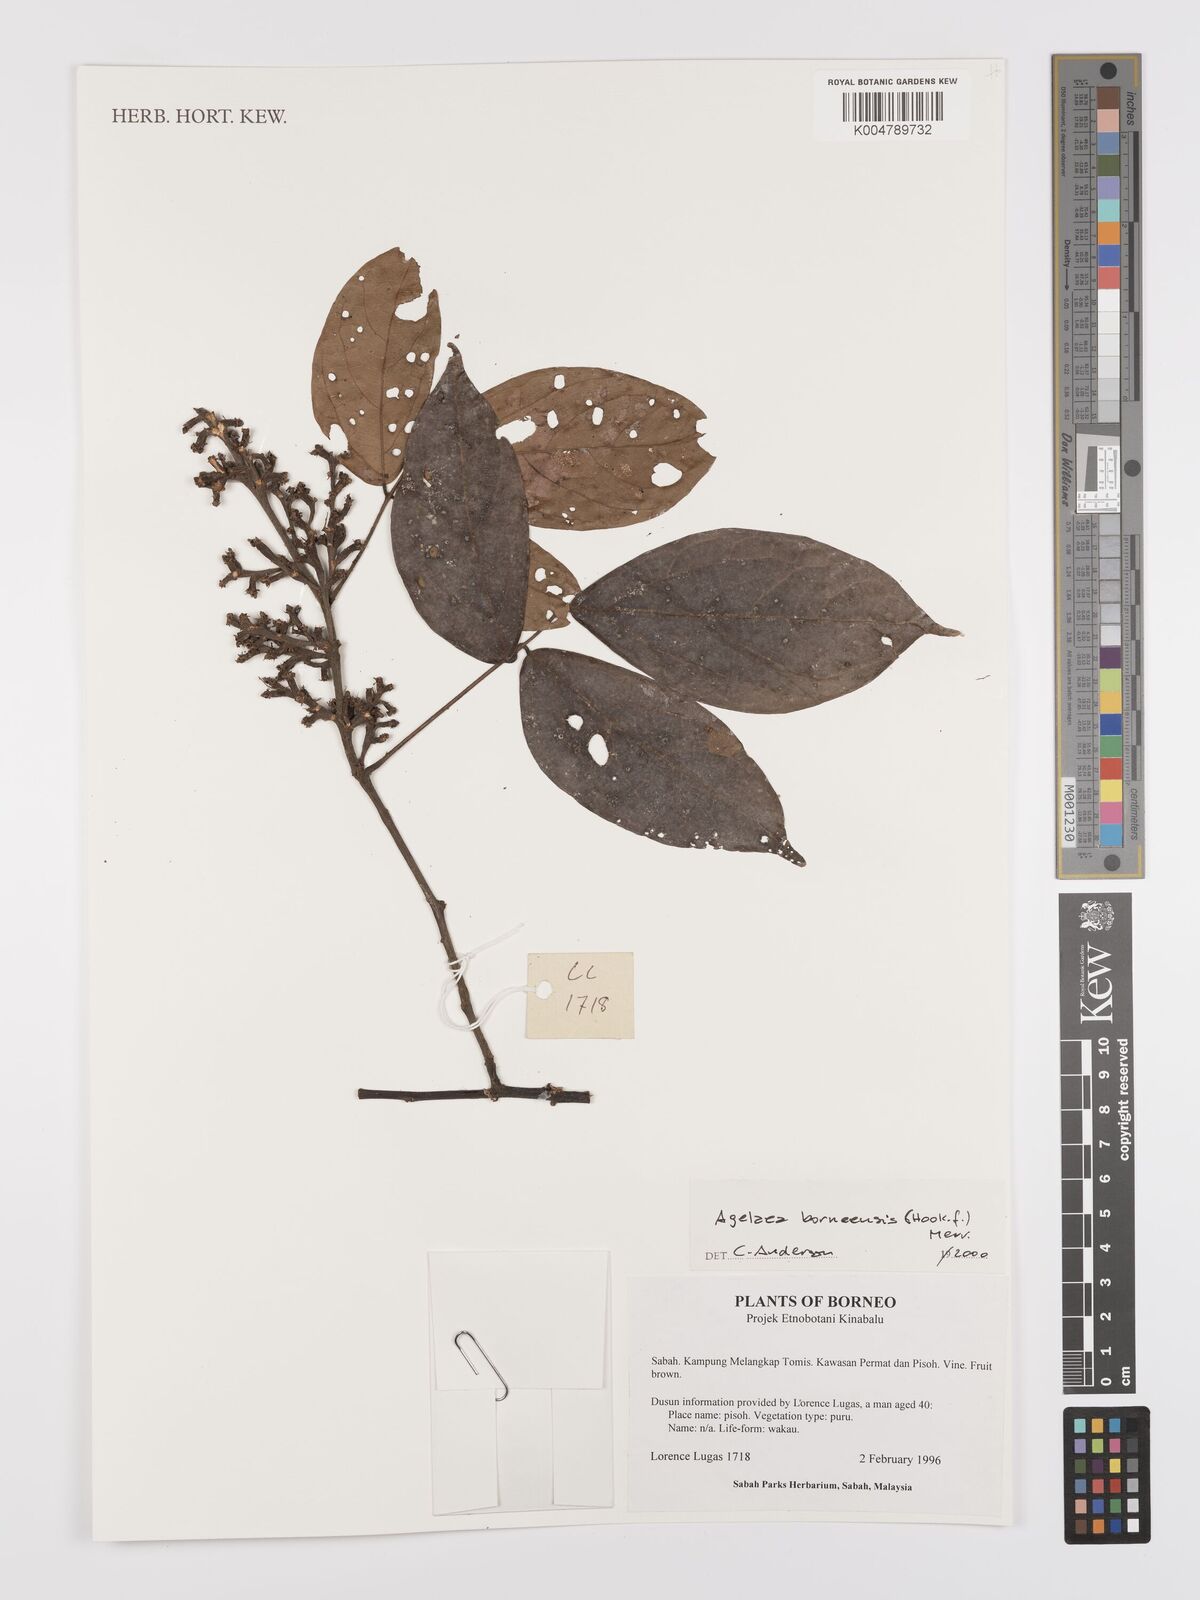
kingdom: Plantae
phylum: Tracheophyta
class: Magnoliopsida
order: Oxalidales
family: Connaraceae
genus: Agelaea
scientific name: Agelaea borneensis
